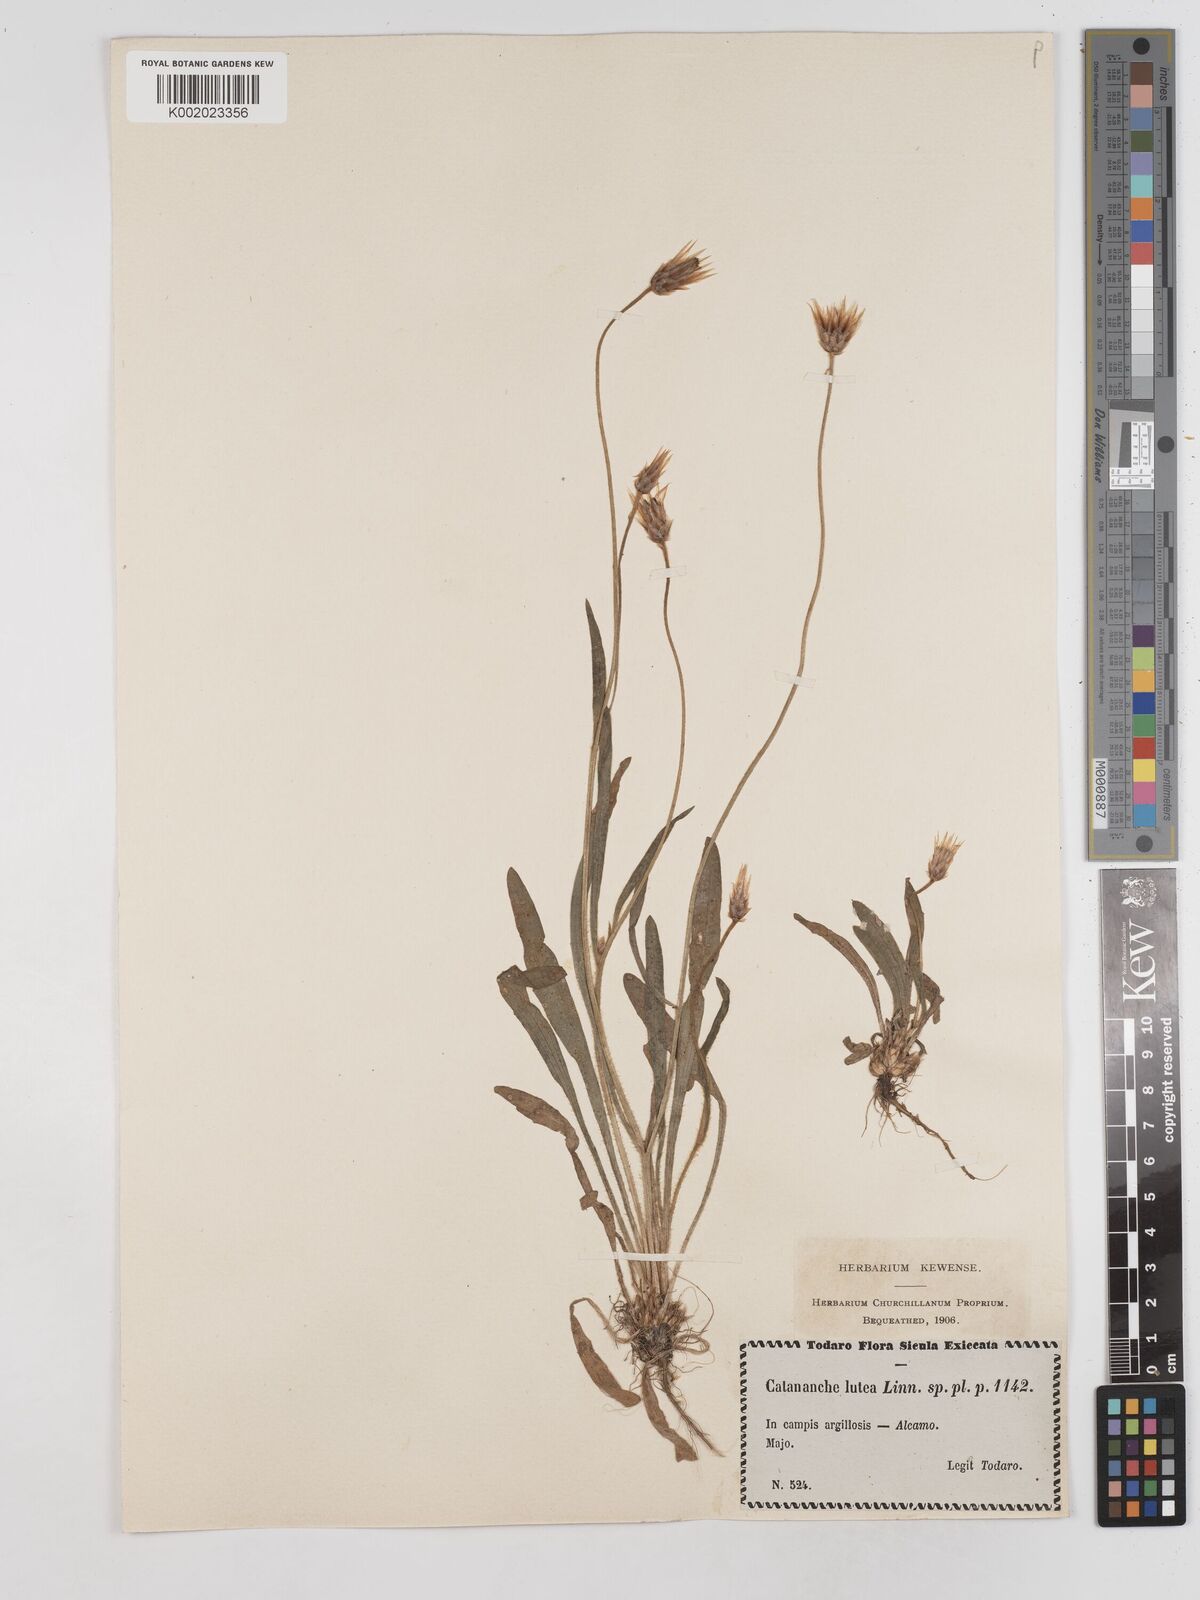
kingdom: Plantae
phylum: Tracheophyta
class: Magnoliopsida
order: Asterales
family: Asteraceae
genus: Catananche
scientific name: Catananche lutea
